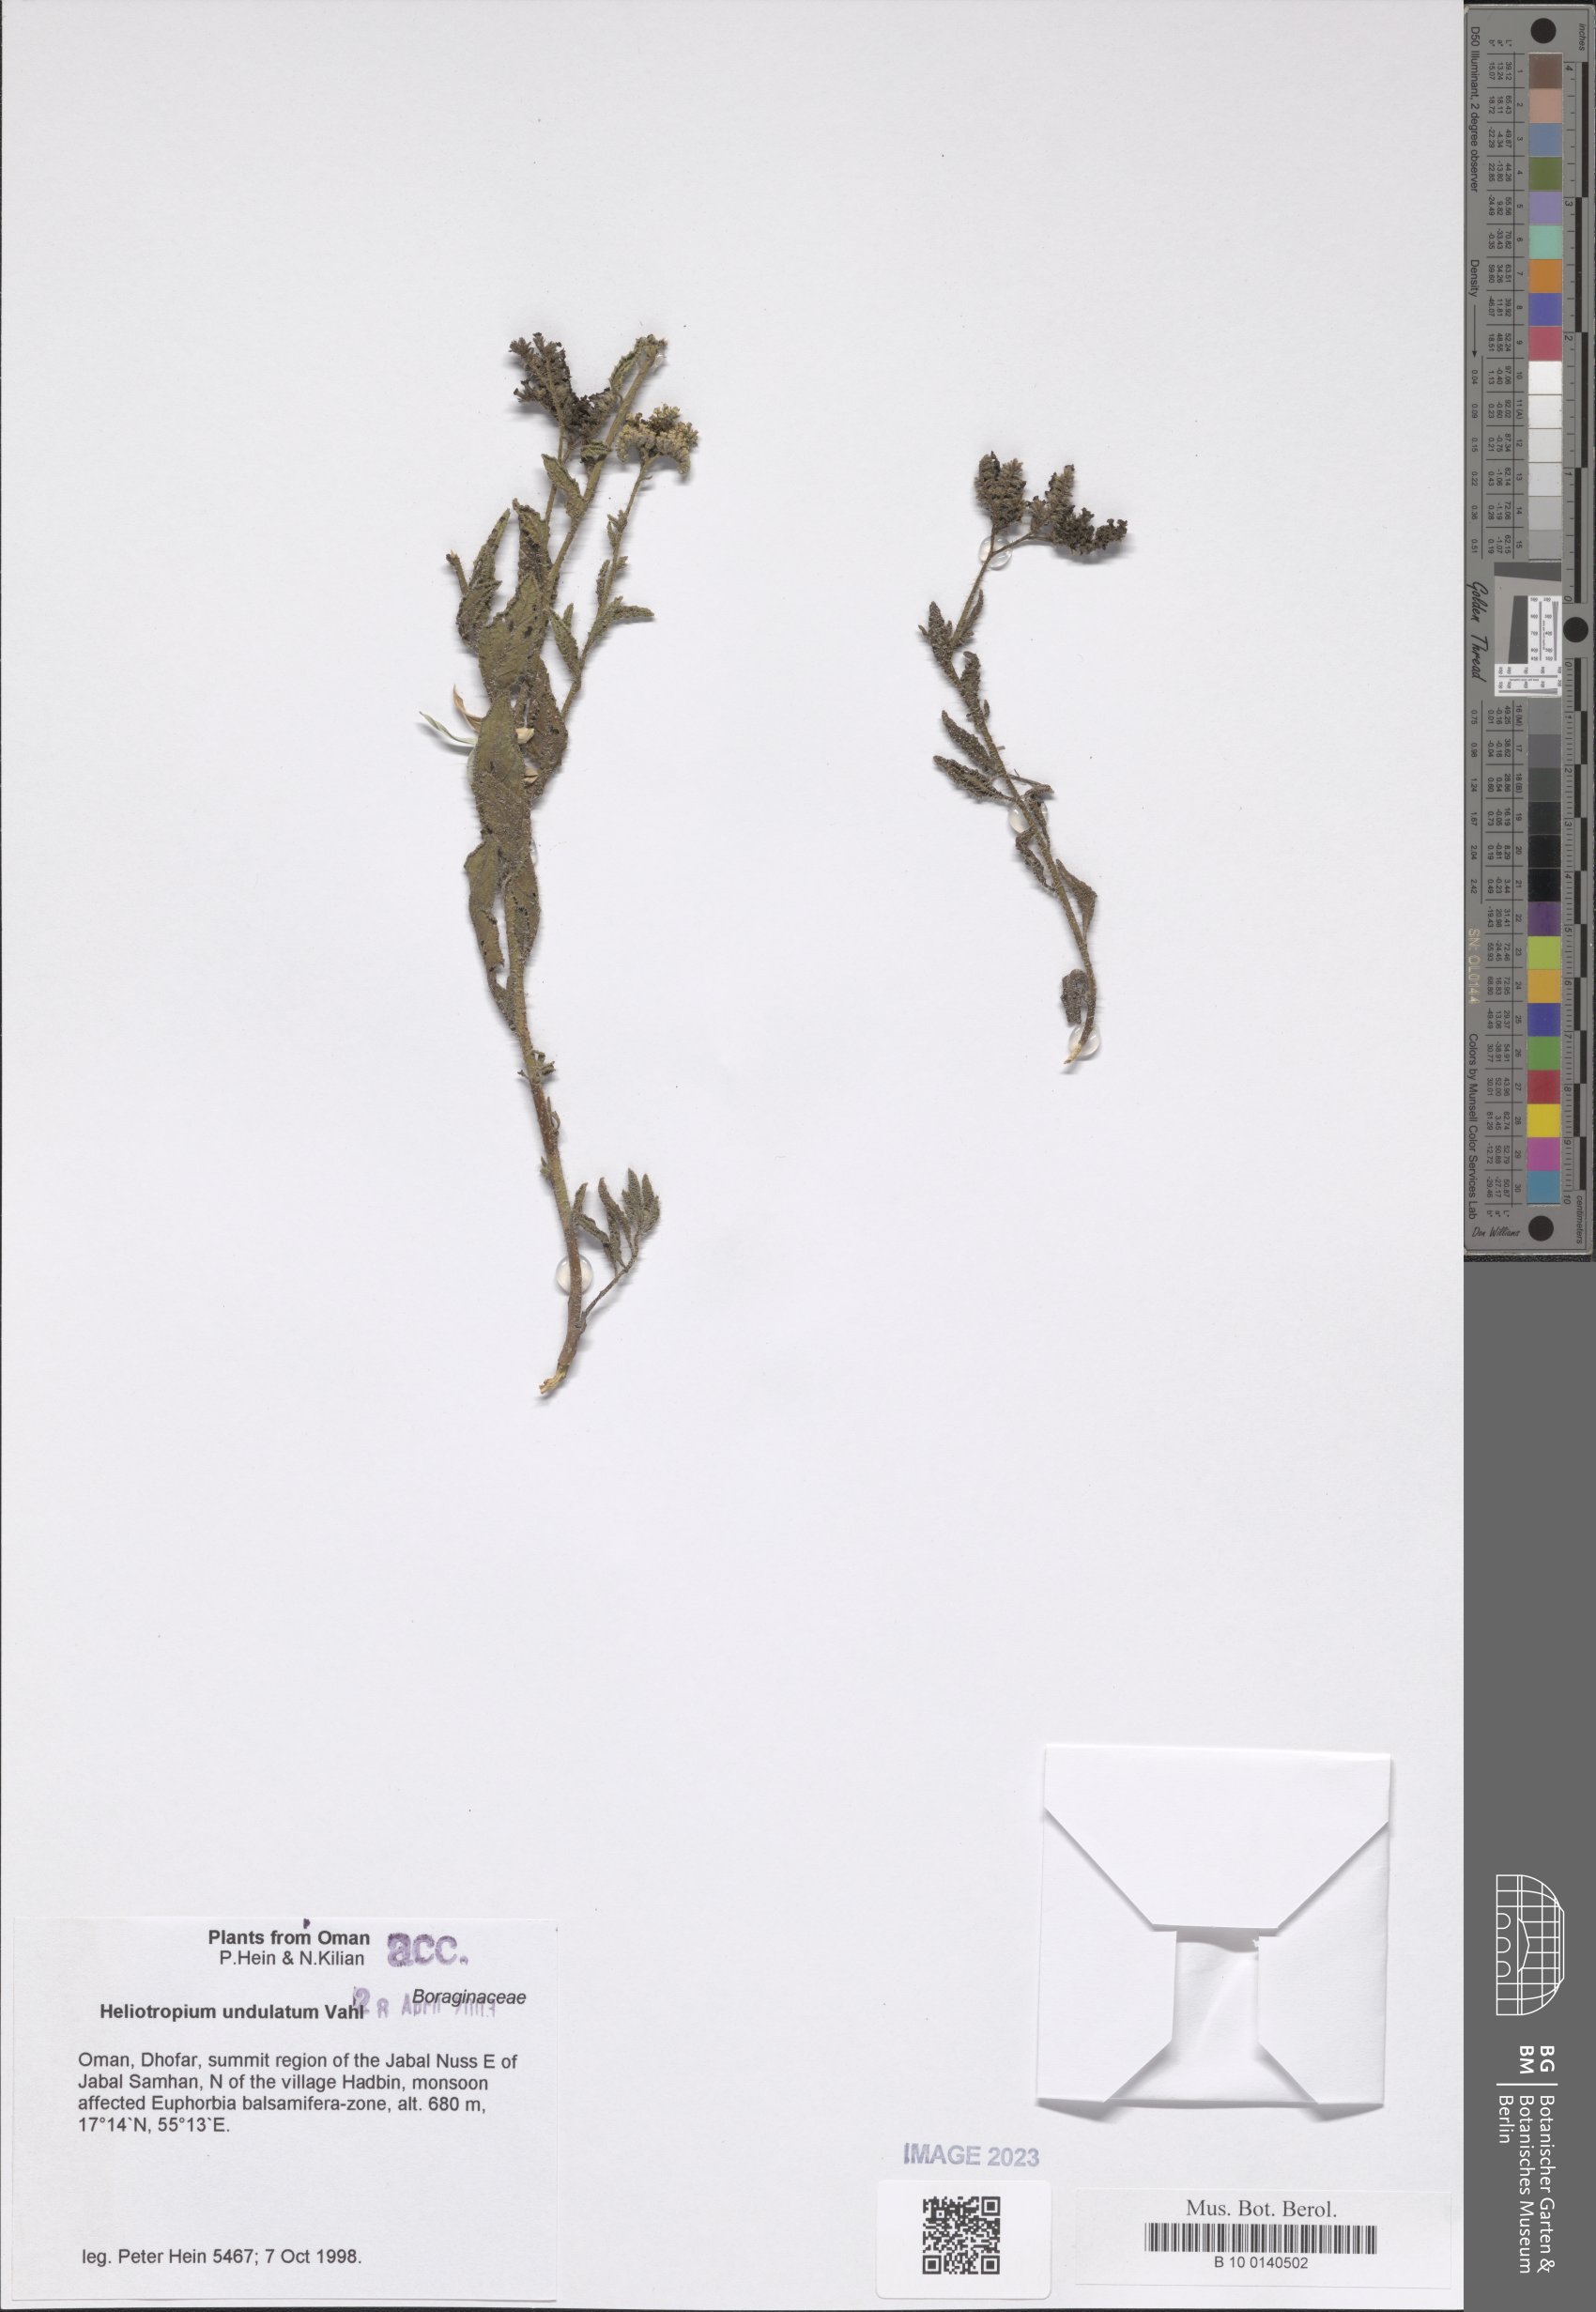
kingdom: Plantae
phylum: Tracheophyta
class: Magnoliopsida
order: Boraginales
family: Heliotropiaceae
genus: Heliotropium
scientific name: Heliotropium bacciferum
